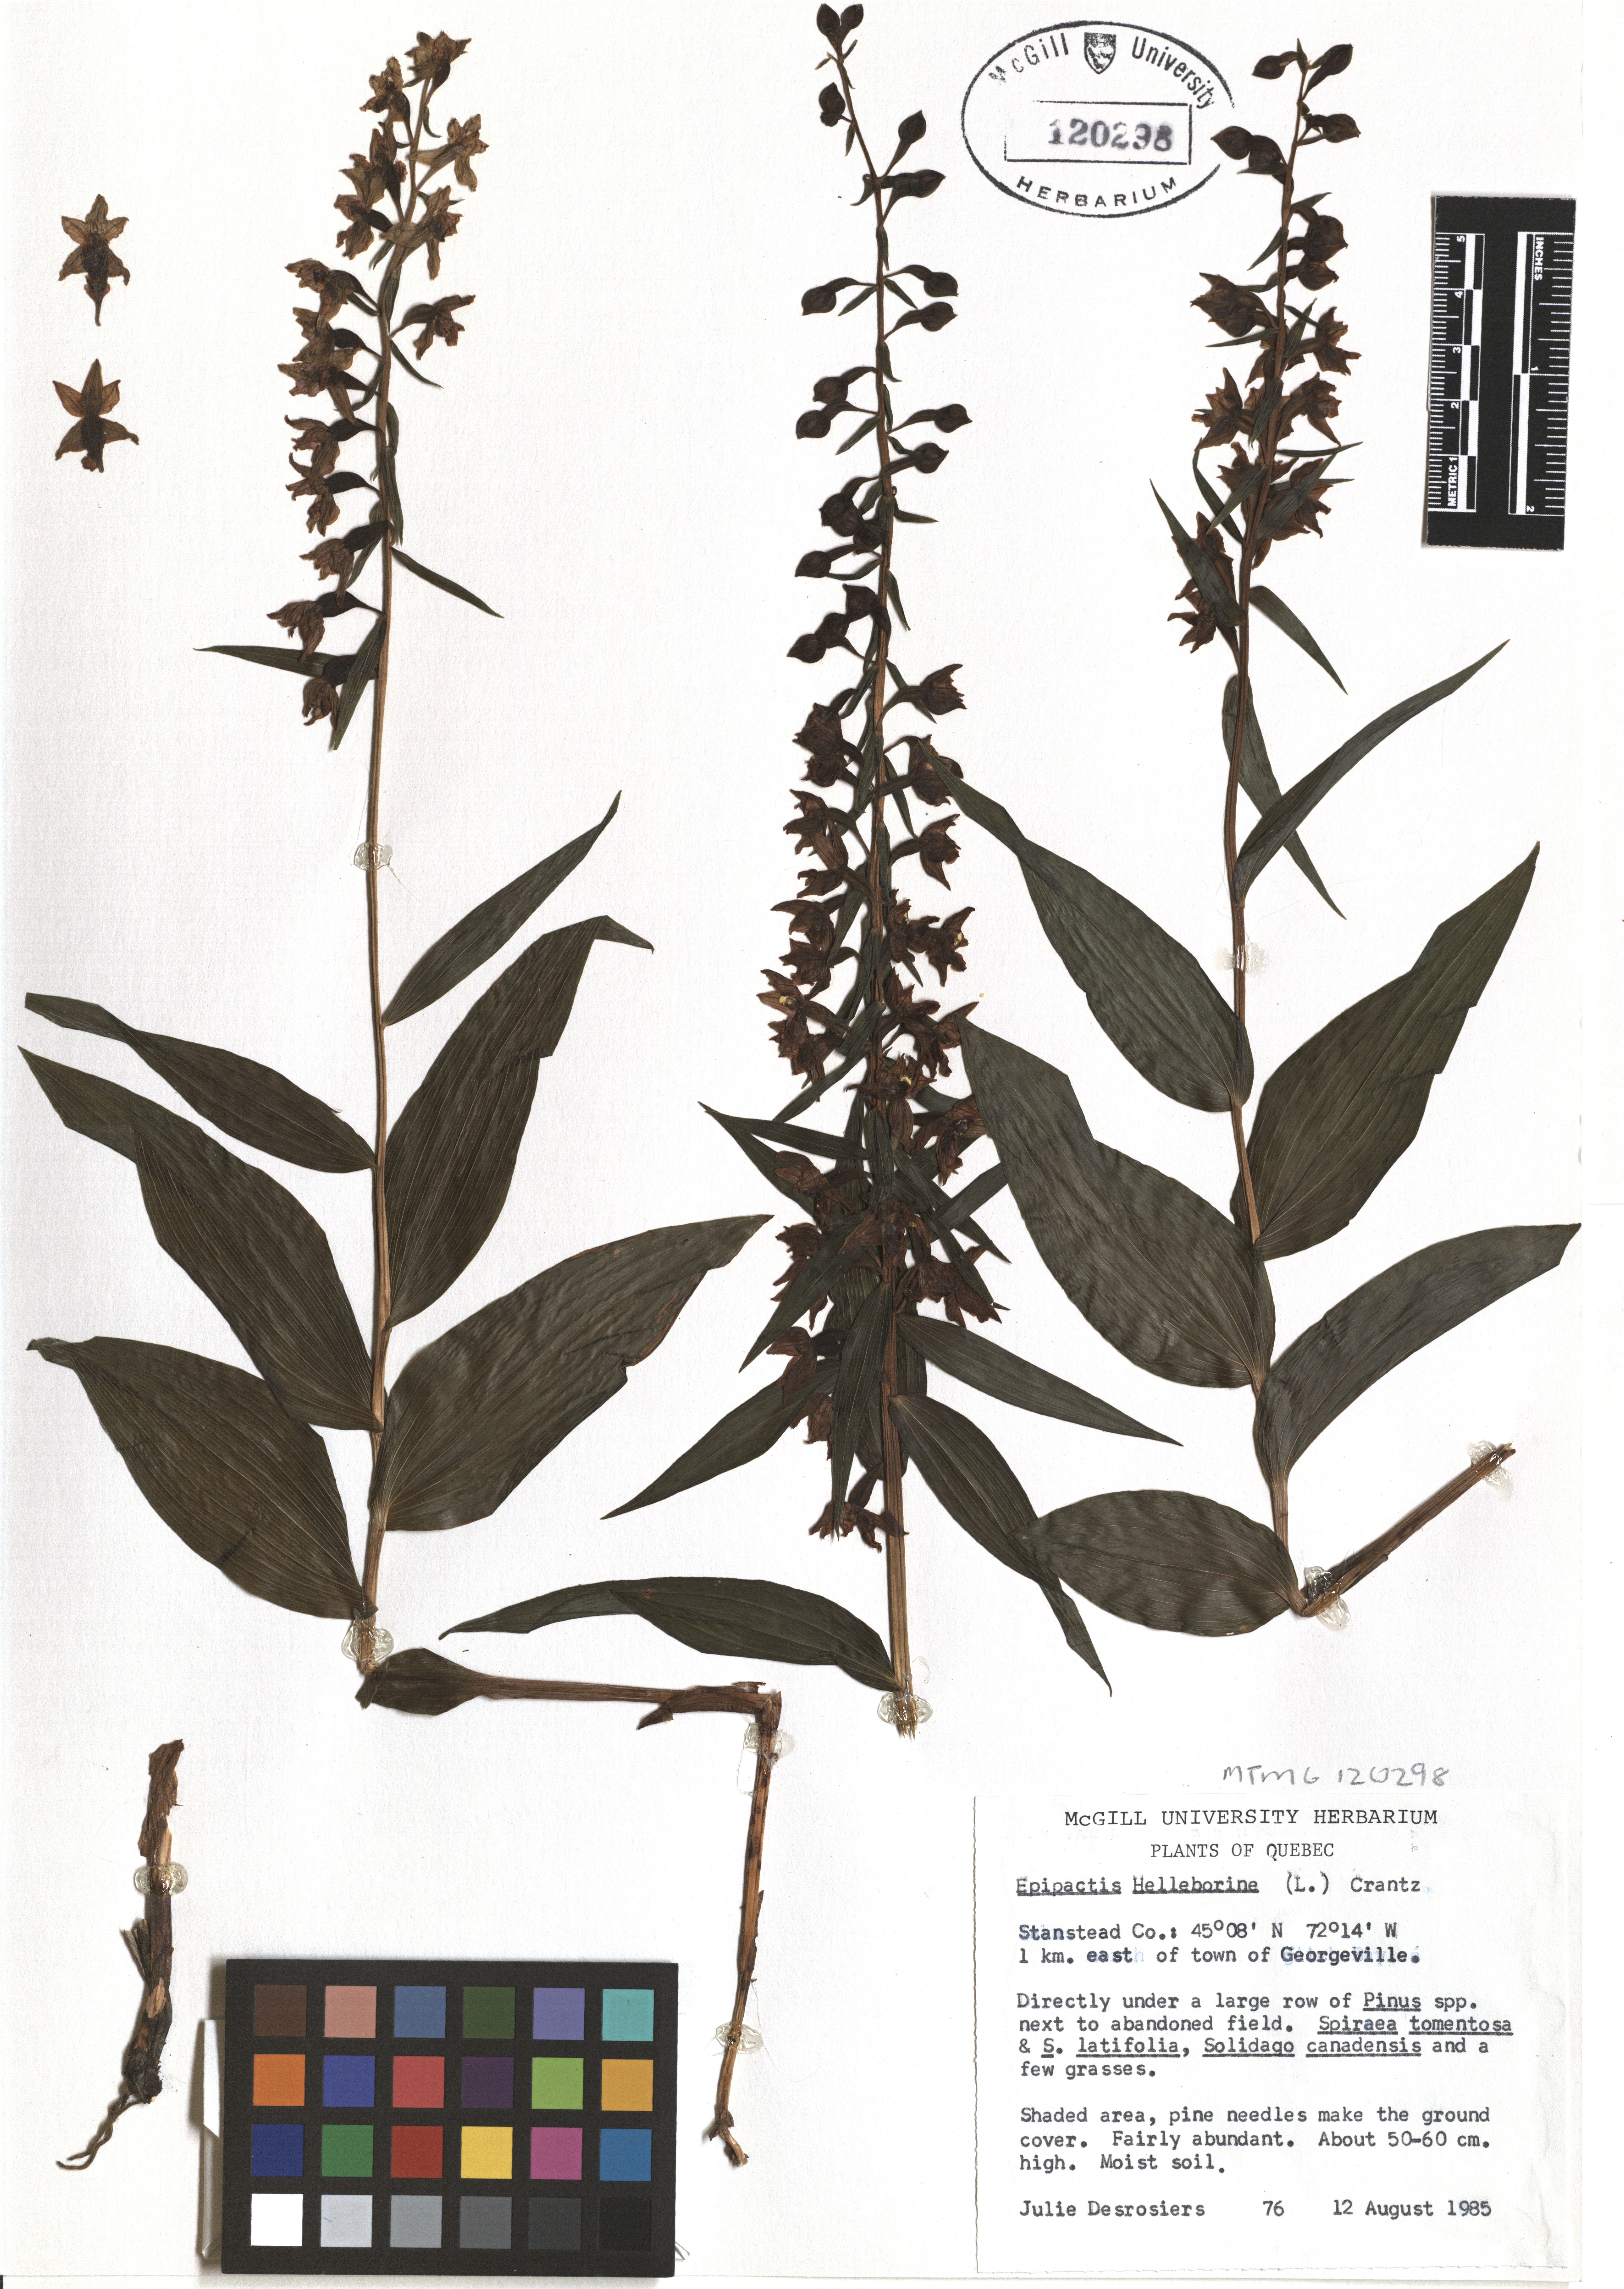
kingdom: Plantae
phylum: Tracheophyta
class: Liliopsida
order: Asparagales
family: Orchidaceae
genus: Epipactis
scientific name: Epipactis helleborine
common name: Broad-leaved helleborine
